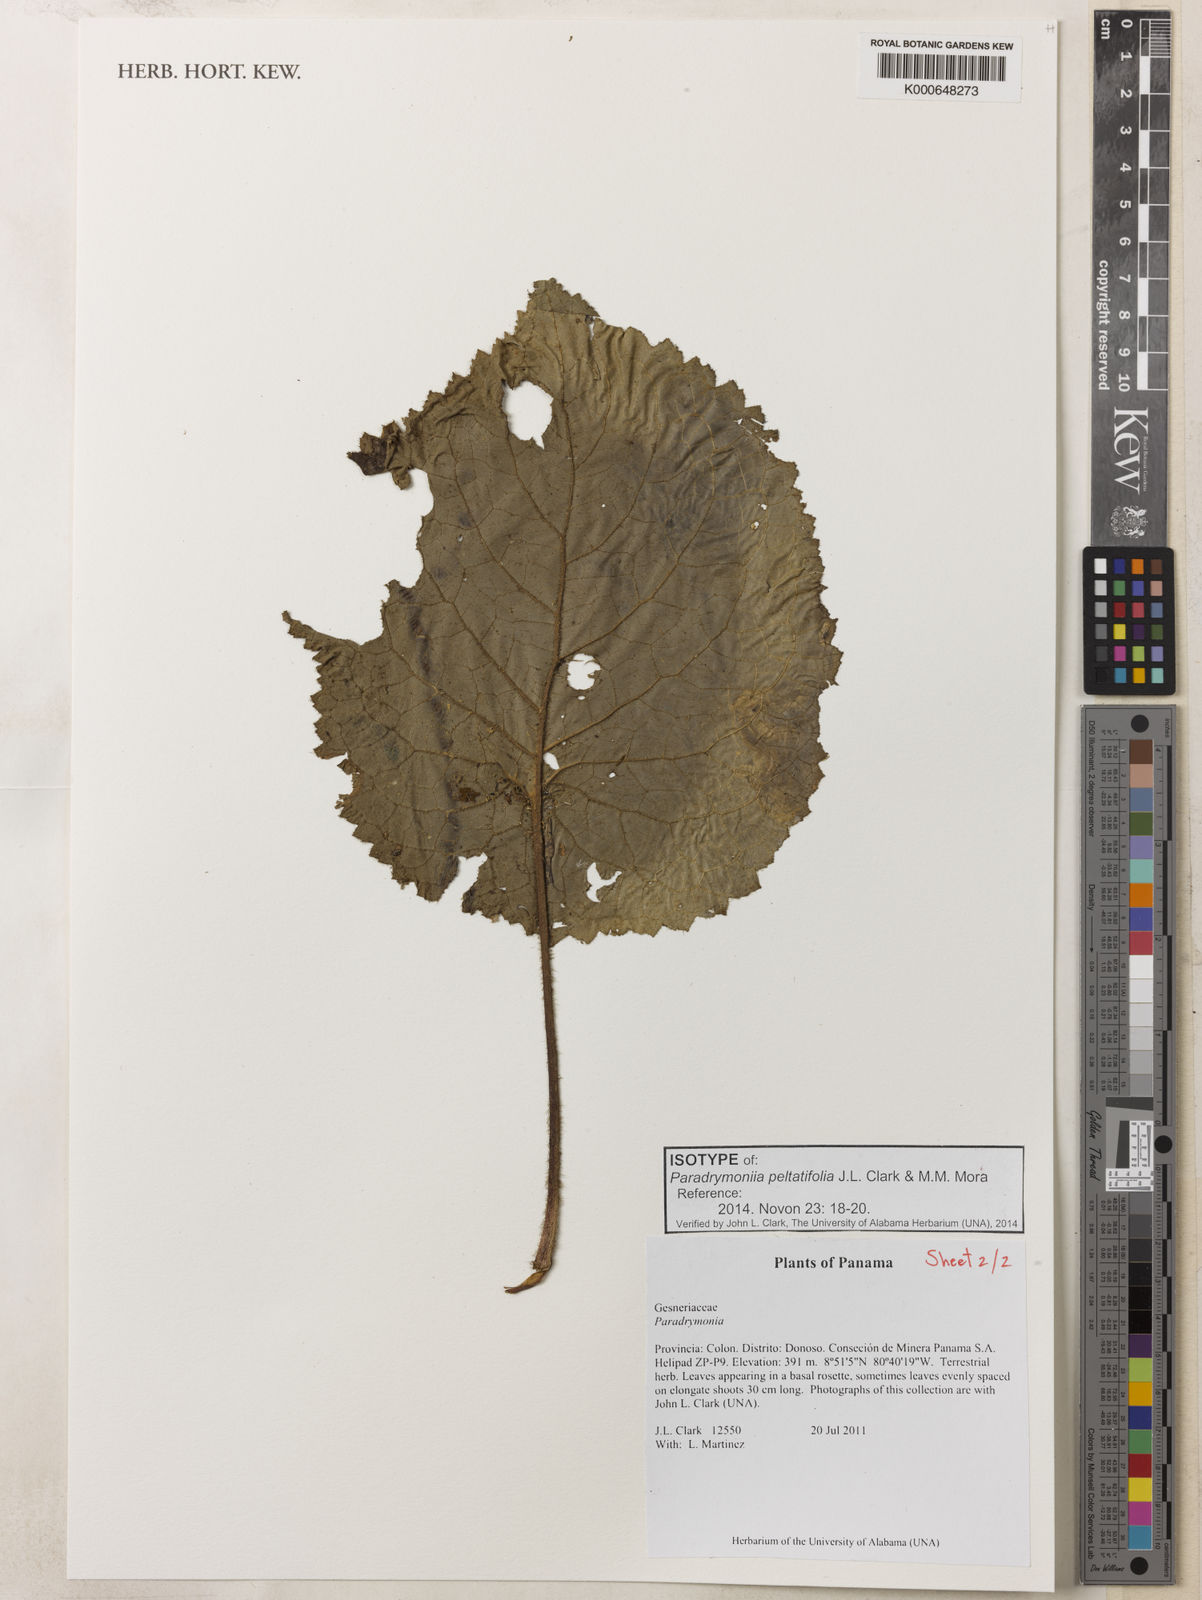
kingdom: Plantae
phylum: Tracheophyta
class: Magnoliopsida
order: Lamiales
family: Gesneriaceae
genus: Trichodrymonia
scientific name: Trichodrymonia peltatifolia
